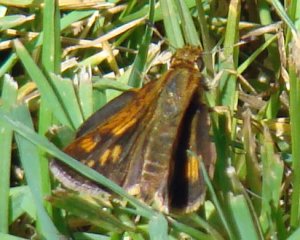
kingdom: Animalia
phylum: Arthropoda
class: Insecta
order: Lepidoptera
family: Hesperiidae
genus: Polites
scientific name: Polites coras
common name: Peck's Skipper
